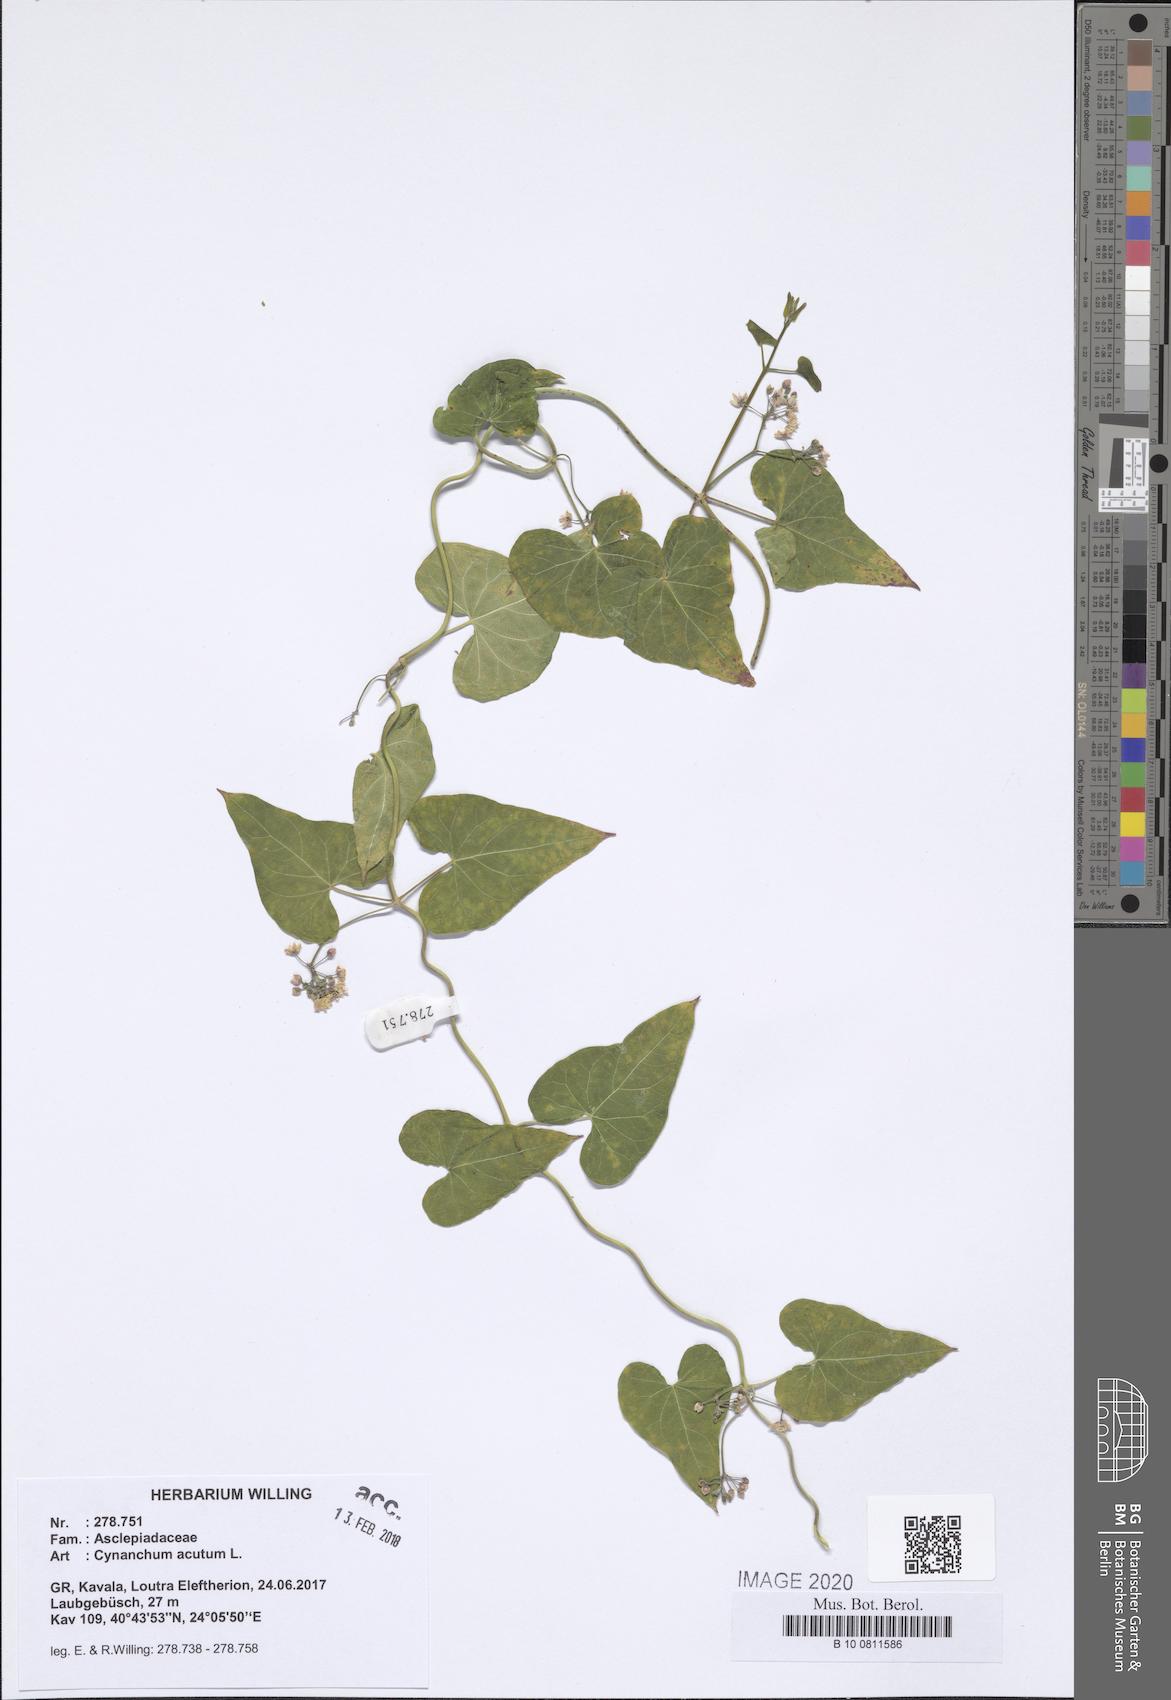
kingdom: Plantae
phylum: Tracheophyta
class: Magnoliopsida
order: Gentianales
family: Apocynaceae
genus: Cynanchum
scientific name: Cynanchum acutum
